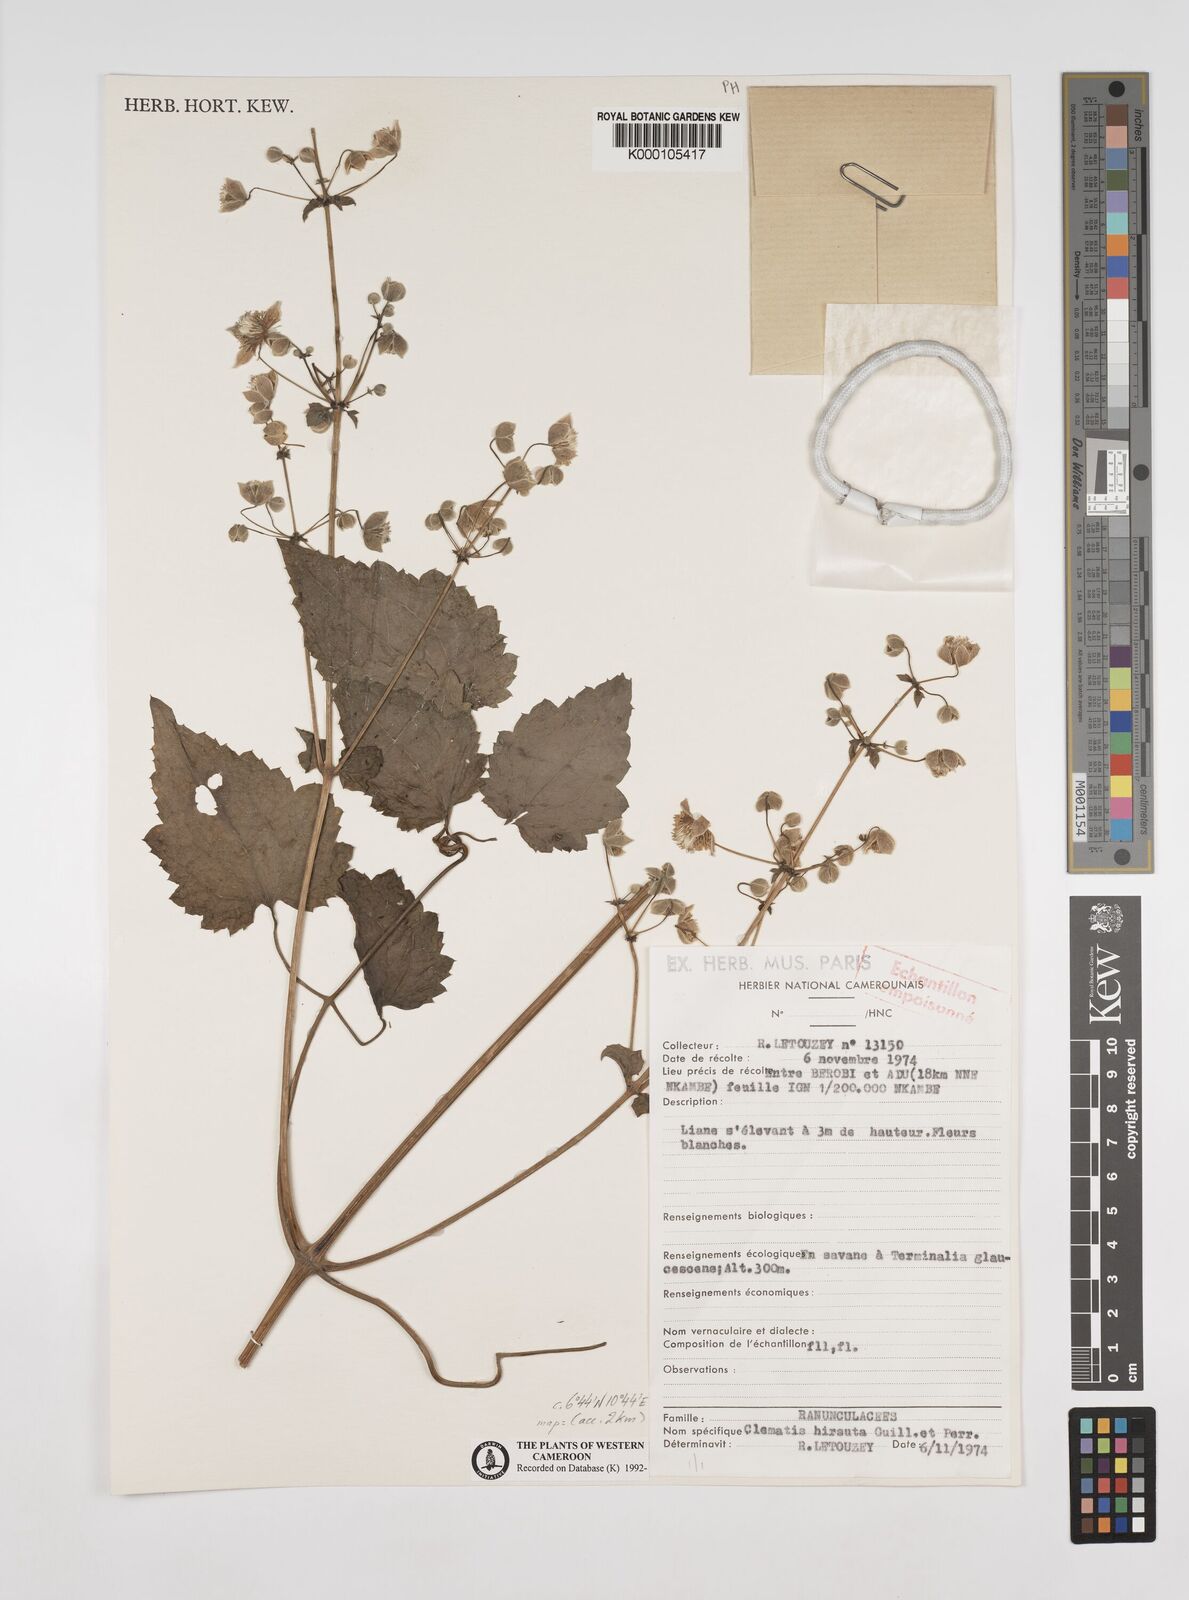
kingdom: Plantae
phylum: Tracheophyta
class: Magnoliopsida
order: Ranunculales
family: Ranunculaceae
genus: Clematis
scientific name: Clematis hirsuta
